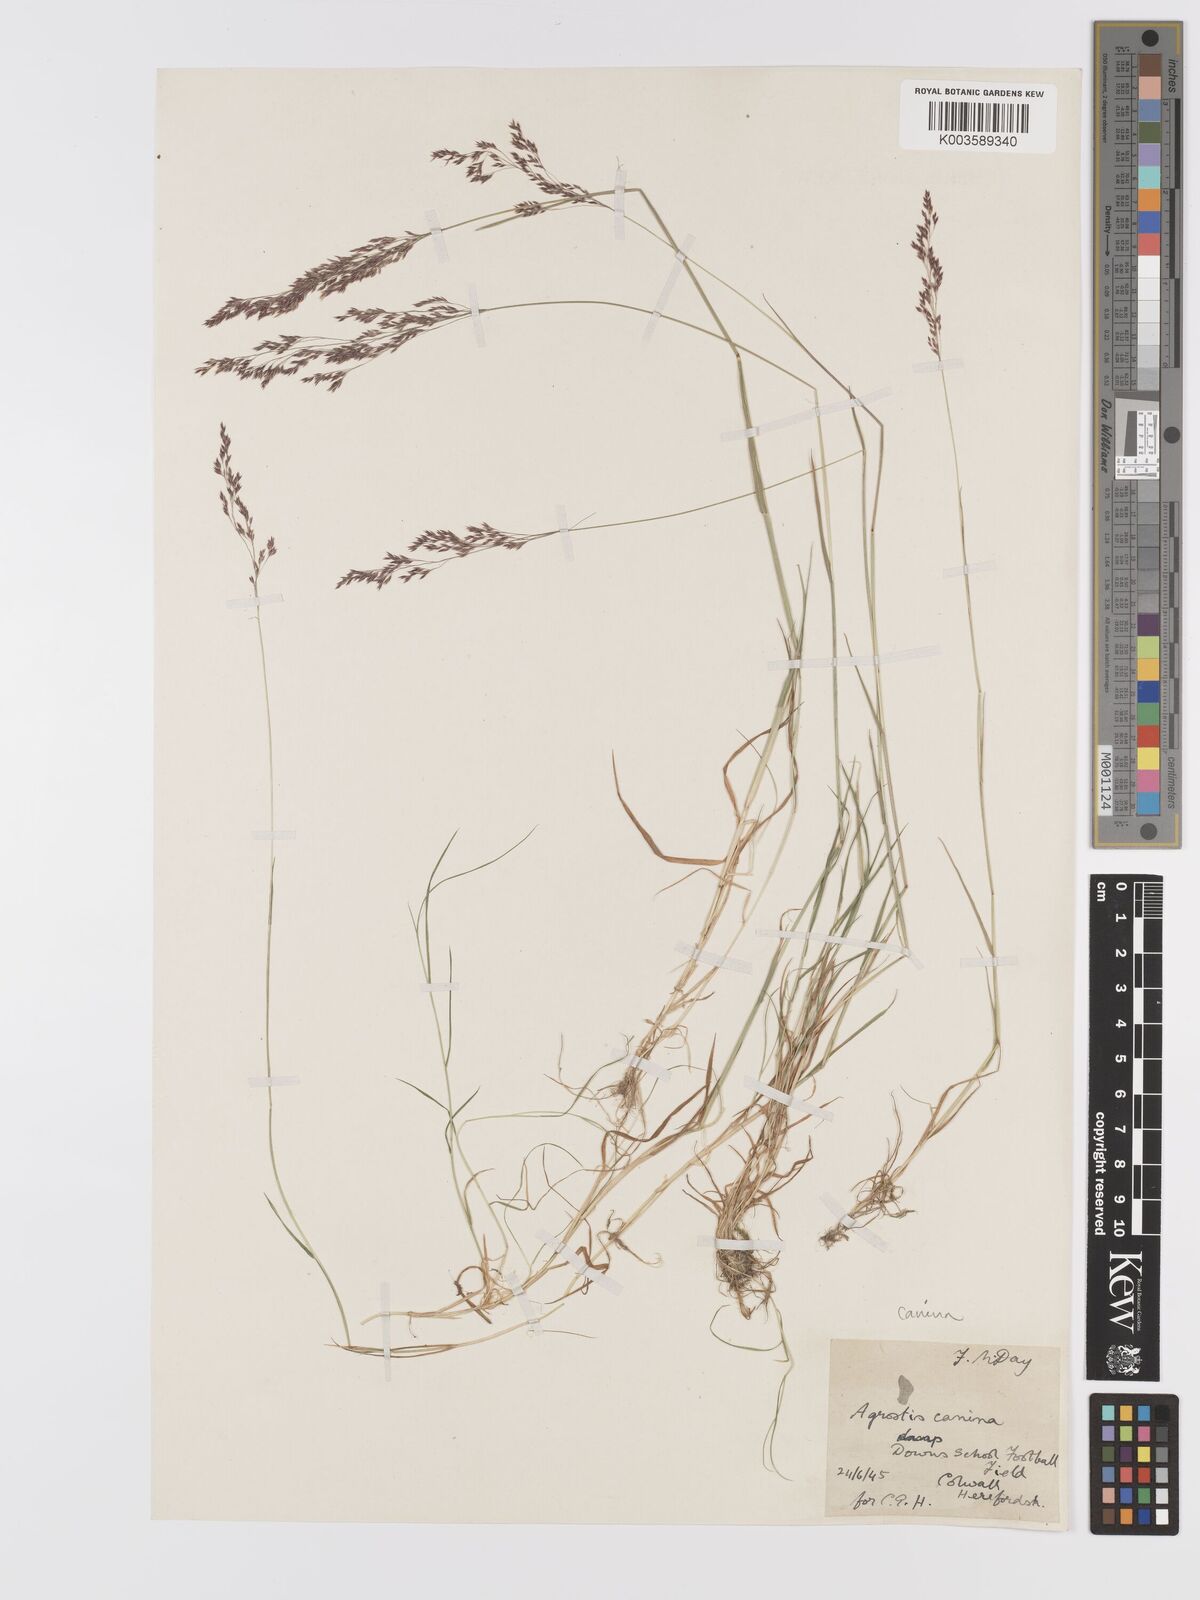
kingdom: Plantae
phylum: Tracheophyta
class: Liliopsida
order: Poales
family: Poaceae
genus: Agrostis
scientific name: Agrostis canina
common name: Velvet bent
